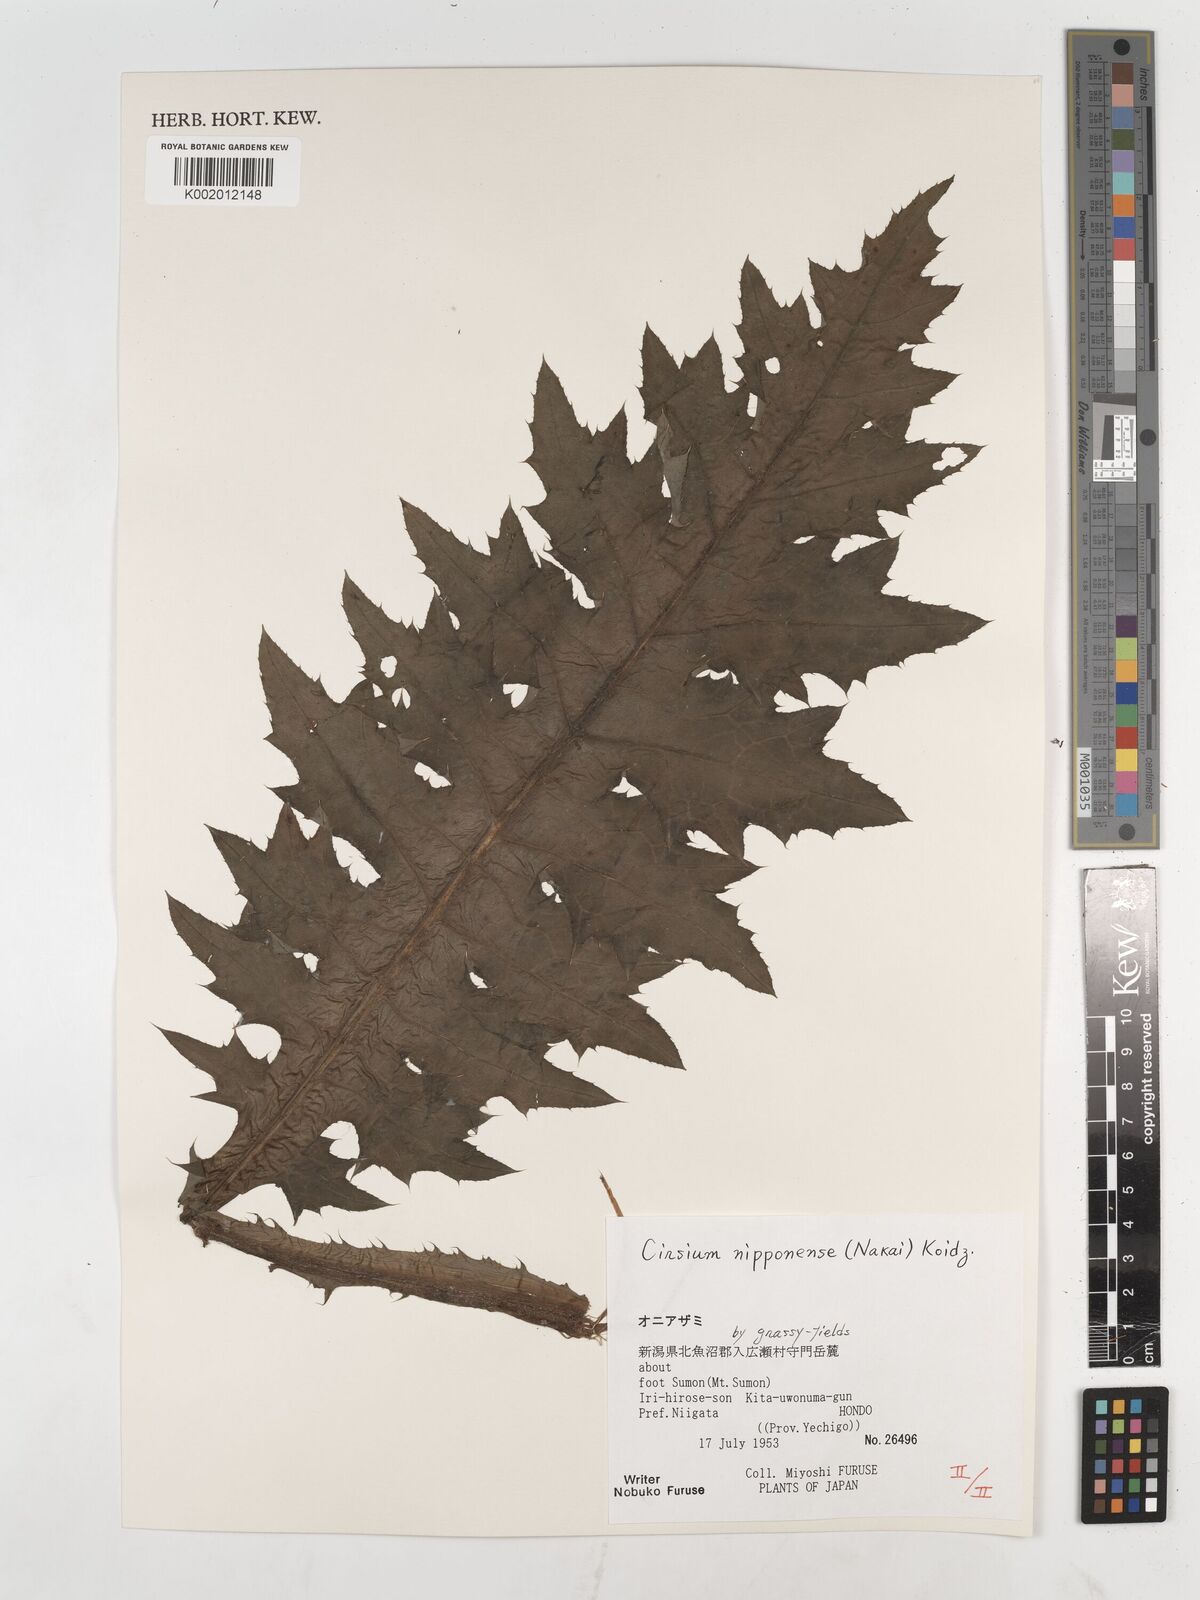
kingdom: Plantae
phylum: Tracheophyta
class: Magnoliopsida
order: Asterales
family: Asteraceae
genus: Cirsium
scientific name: Cirsium borealinipponense
